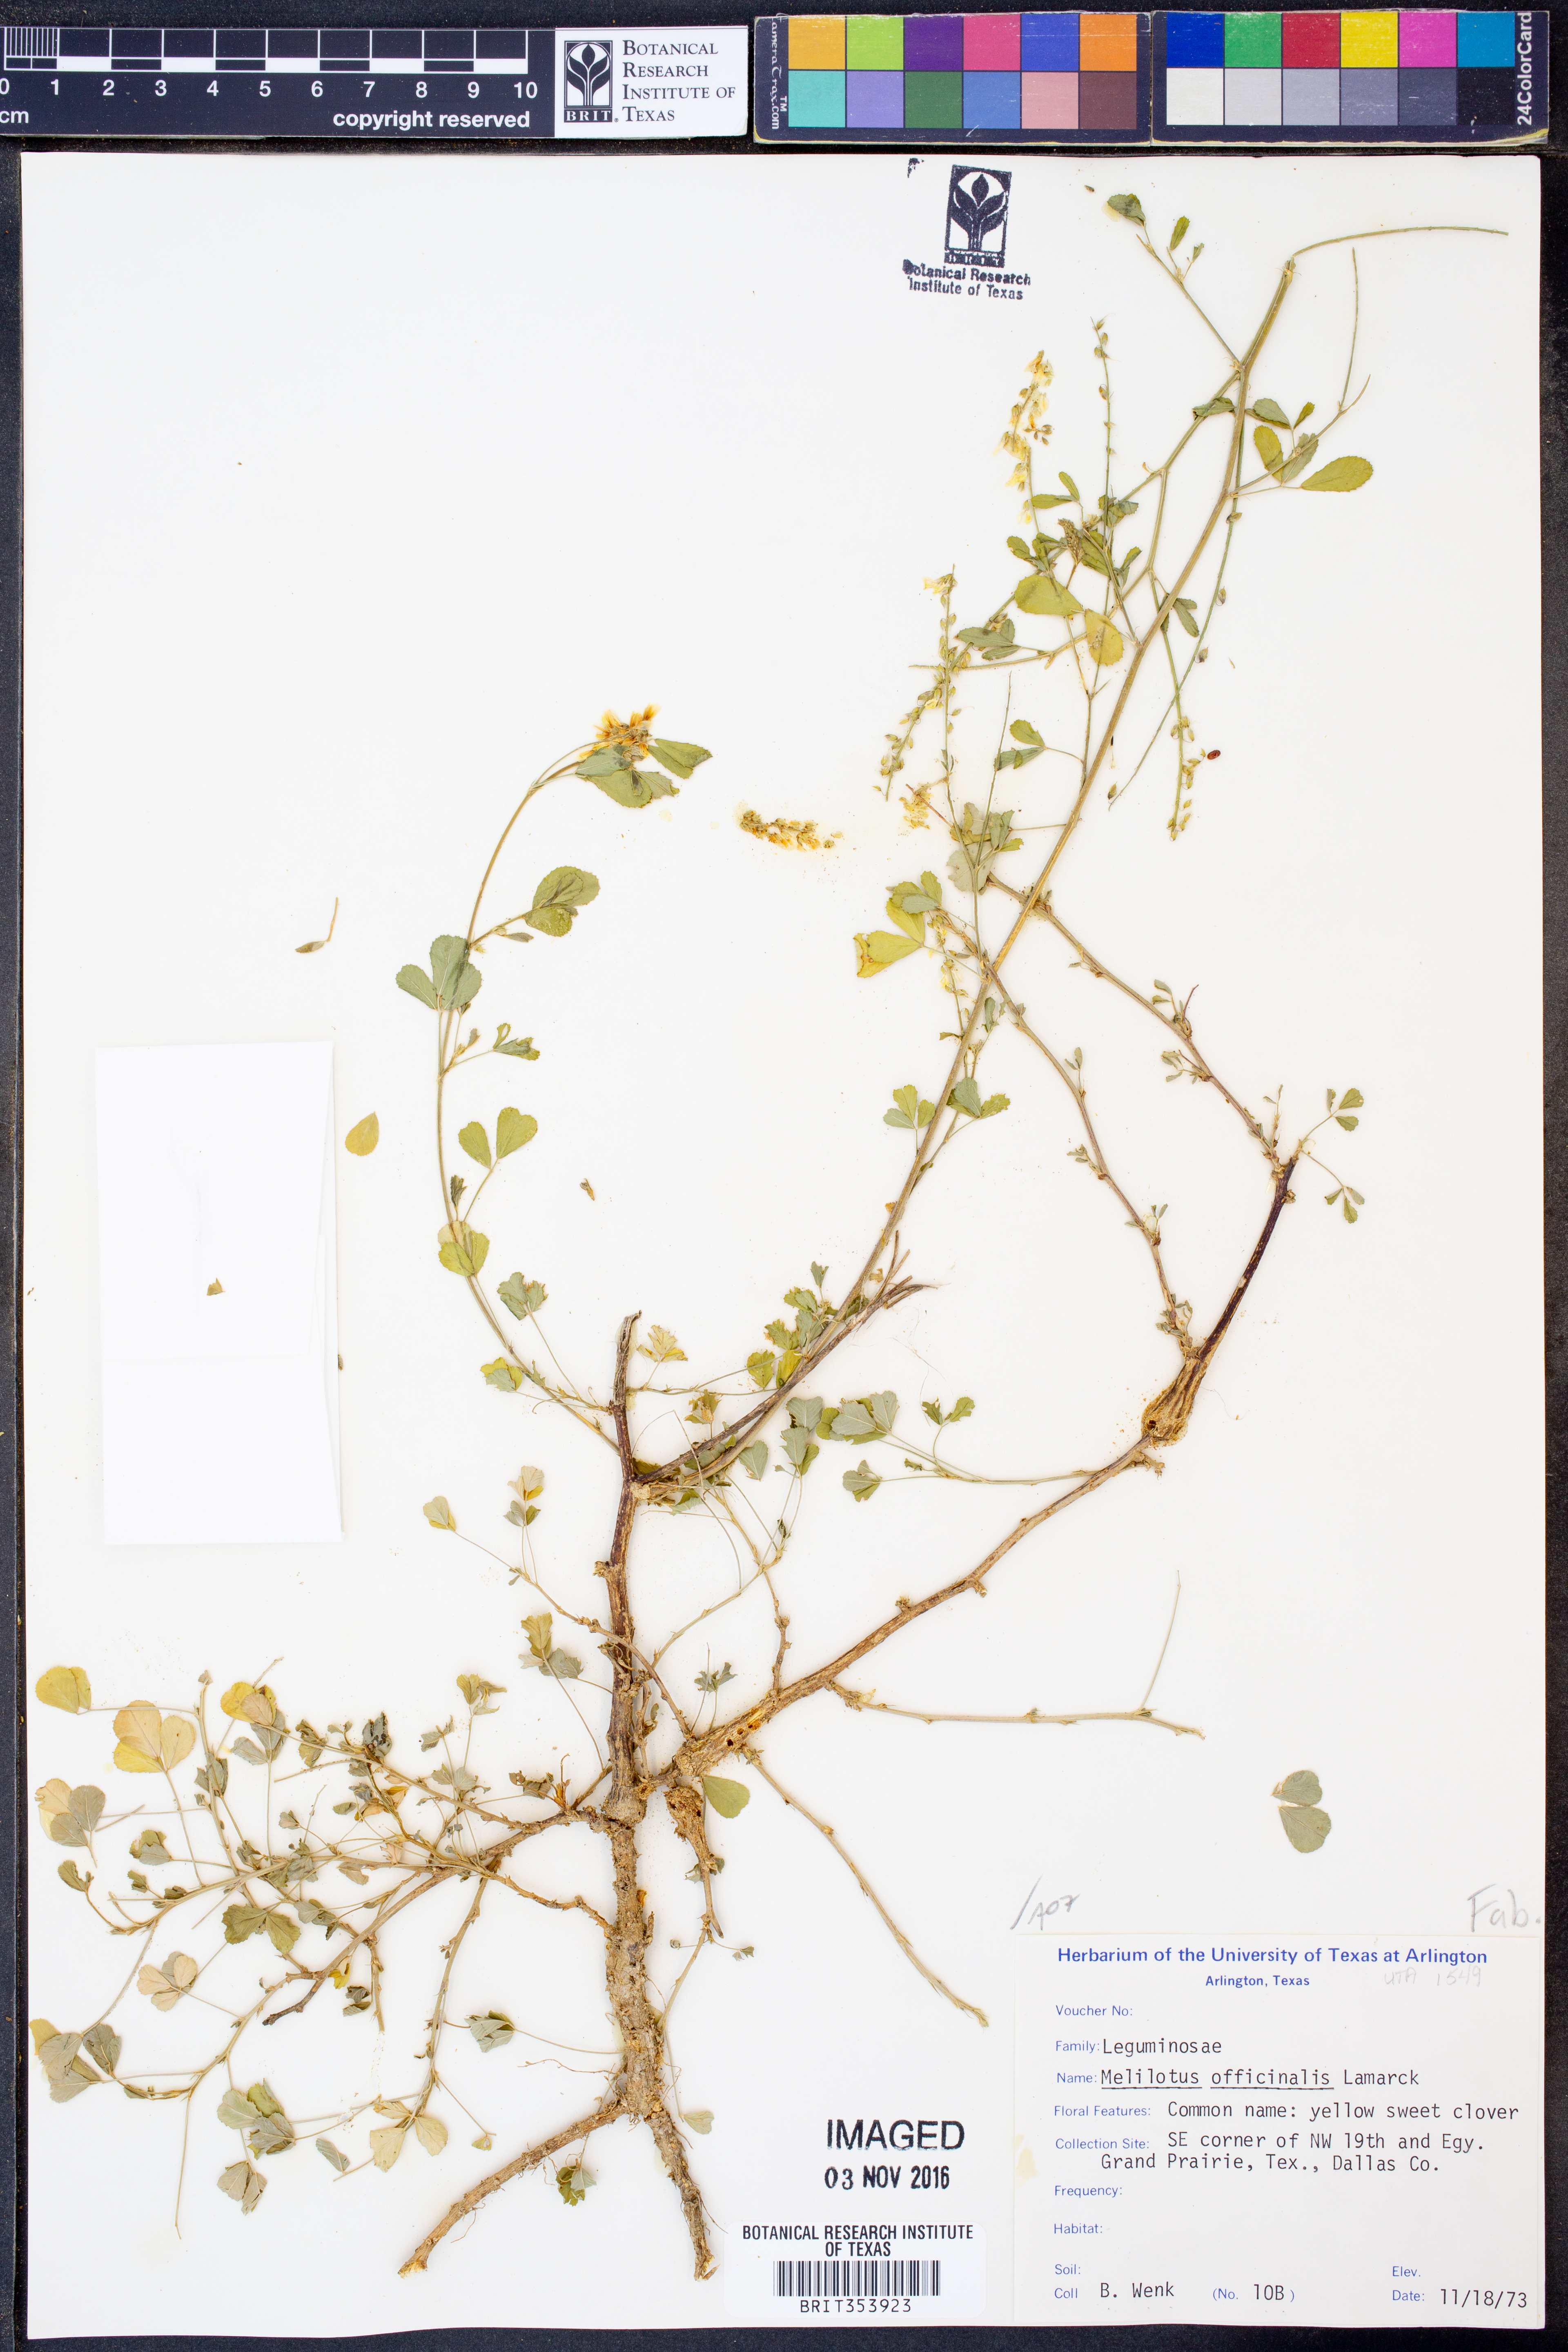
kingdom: Plantae
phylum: Tracheophyta
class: Magnoliopsida
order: Fabales
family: Fabaceae
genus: Melilotus
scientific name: Melilotus officinalis
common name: Sweetclover
